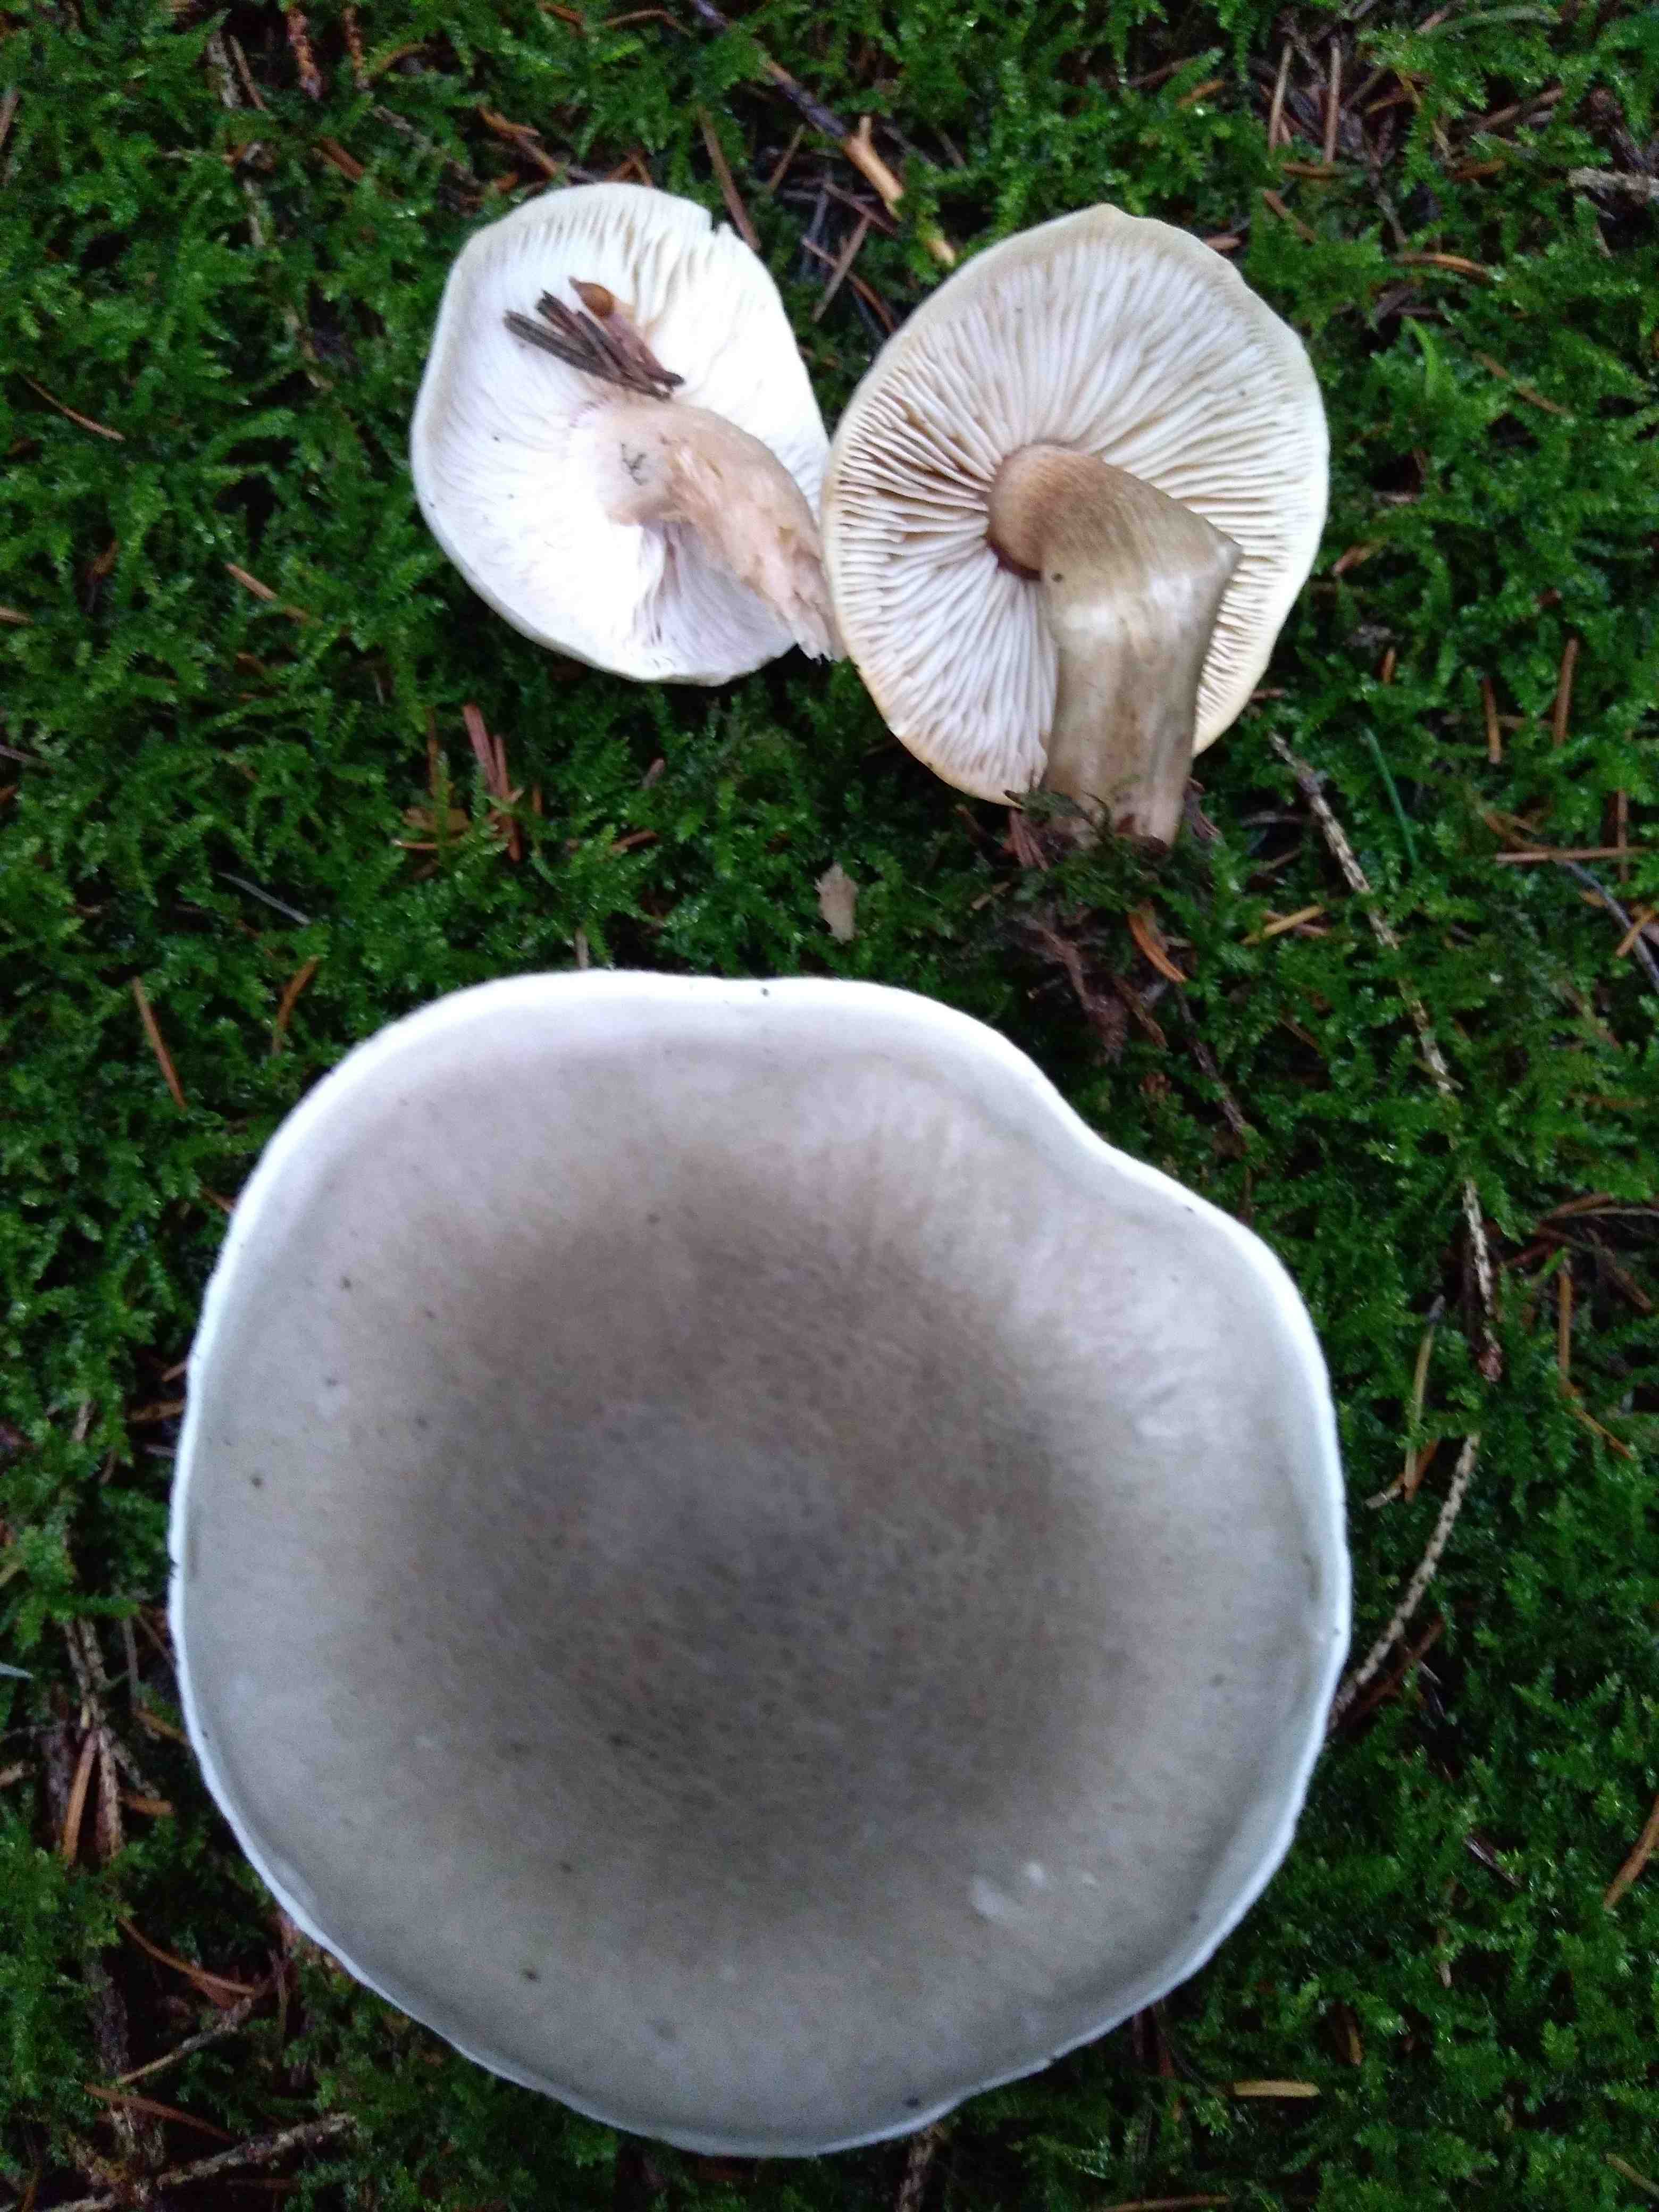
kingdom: Fungi
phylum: Basidiomycota
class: Agaricomycetes
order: Agaricales
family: Tricholomataceae
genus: Tricholoma
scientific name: Tricholoma
